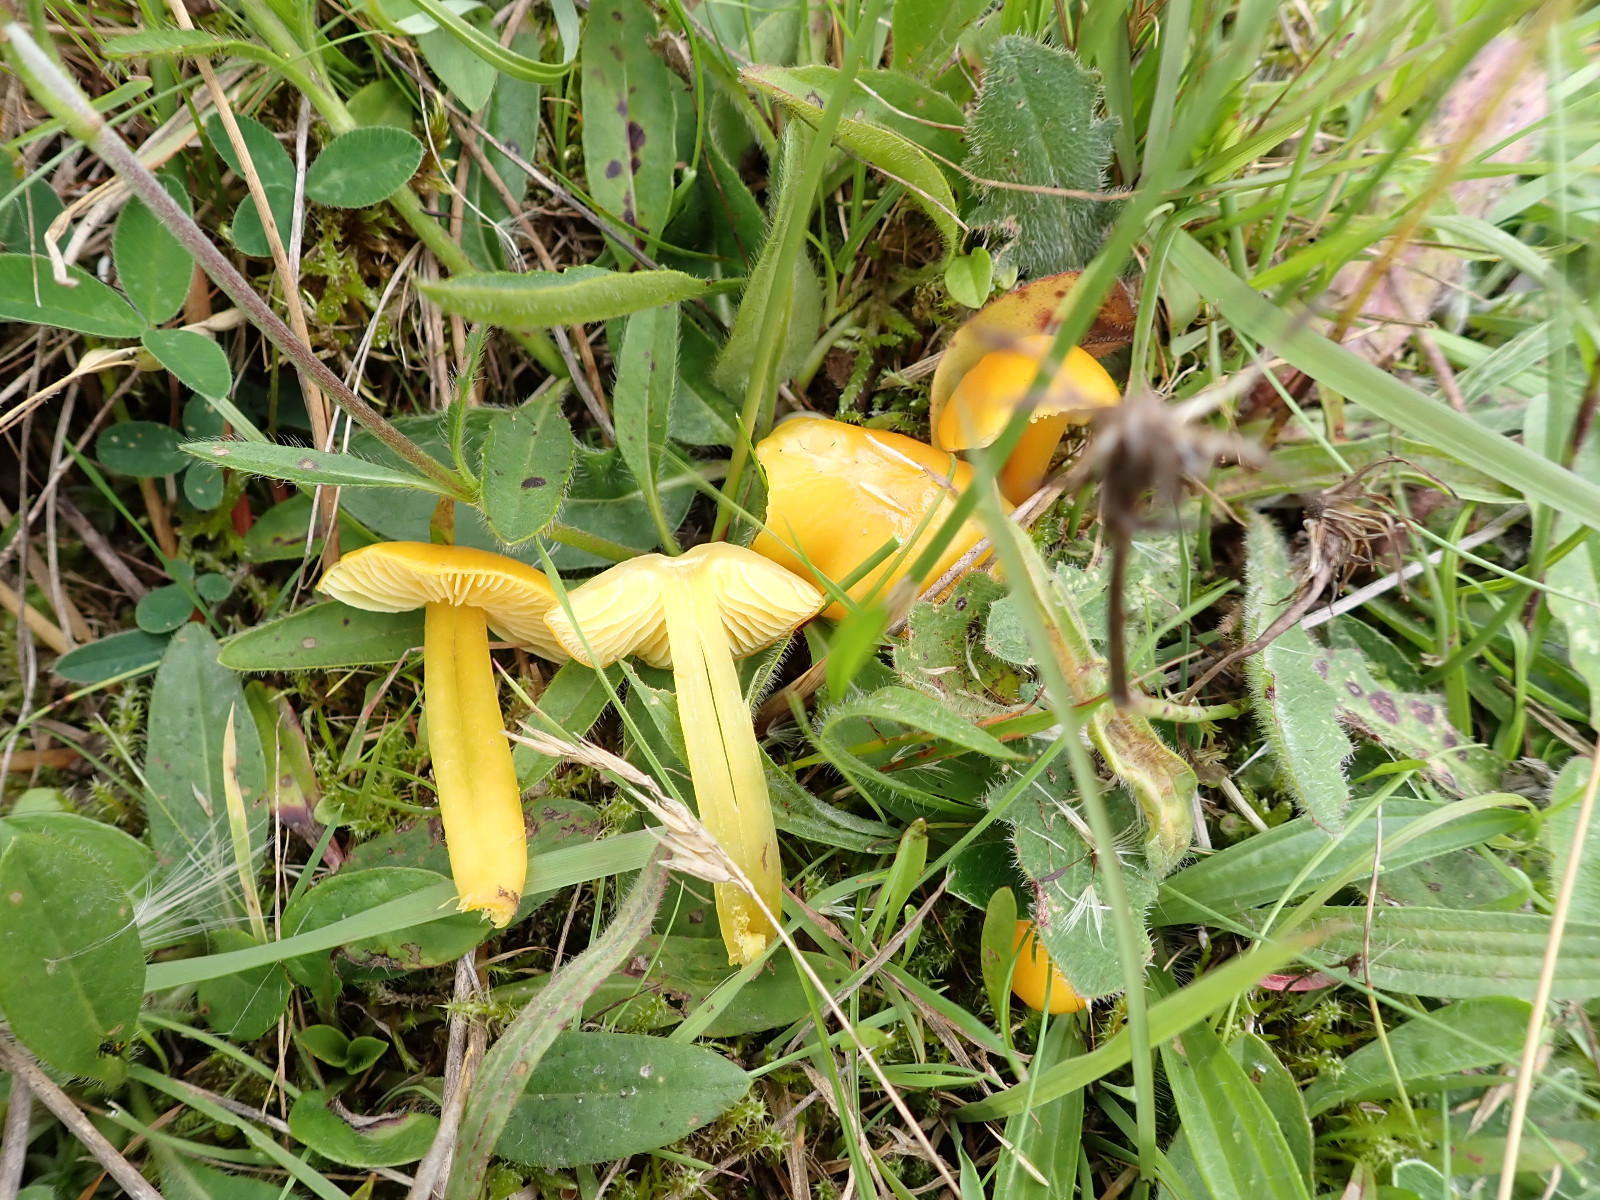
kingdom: Fungi
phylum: Basidiomycota
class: Agaricomycetes
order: Agaricales
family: Hygrophoraceae
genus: Hygrocybe
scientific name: Hygrocybe chlorophana
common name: gul vokshat
